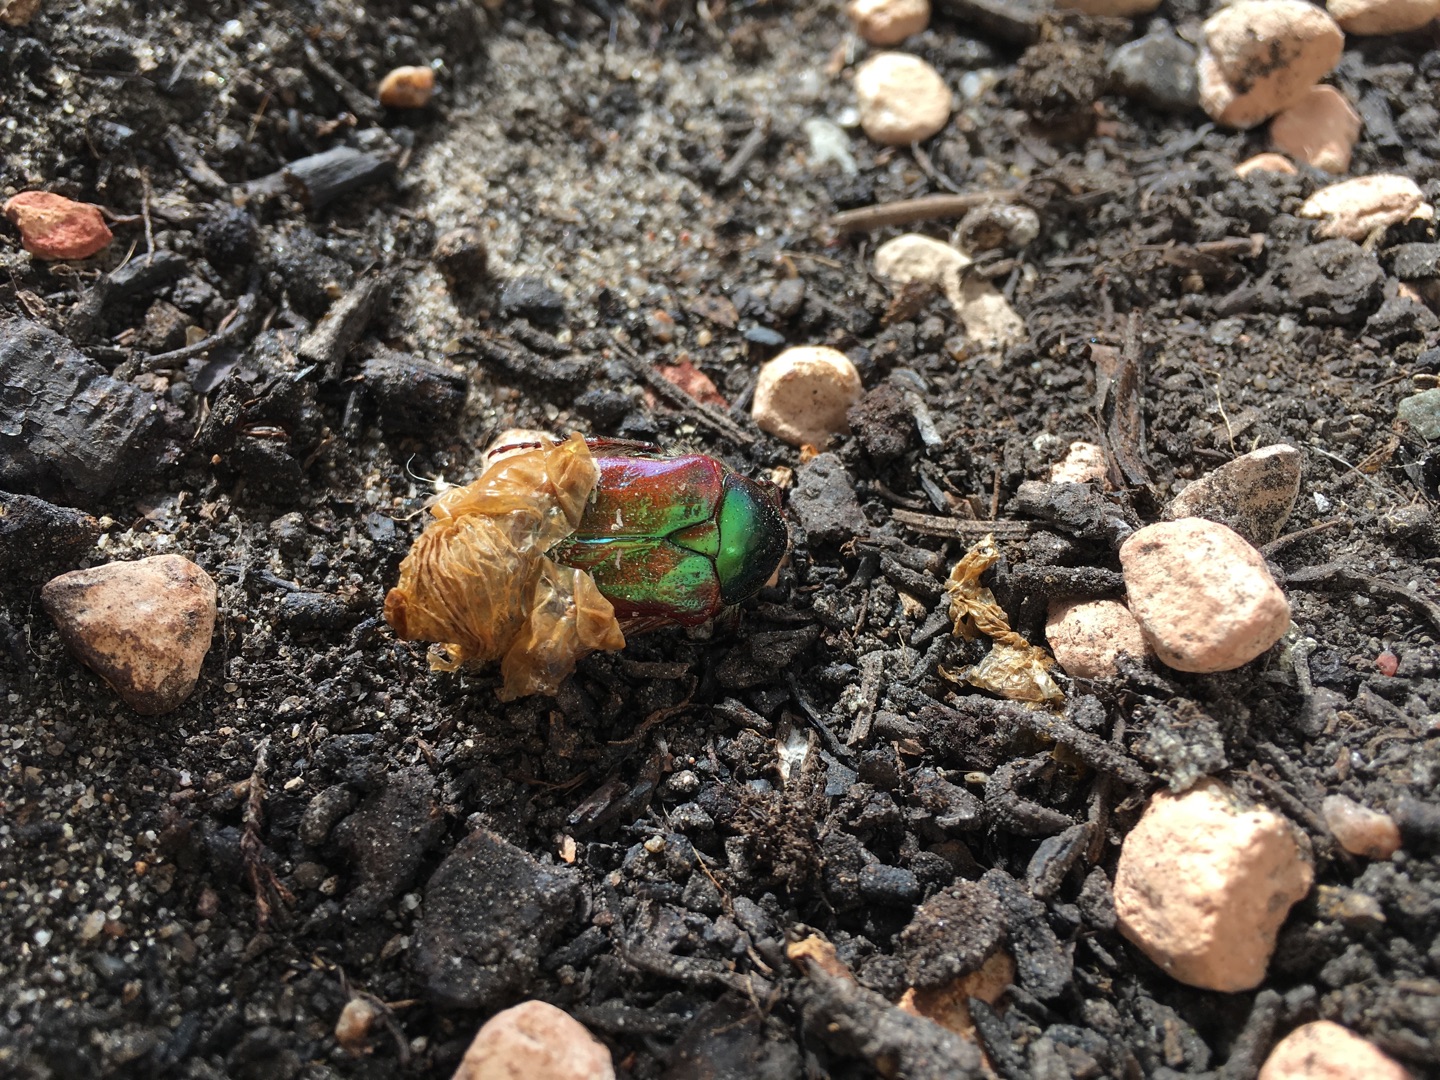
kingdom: Animalia
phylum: Arthropoda
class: Insecta
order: Coleoptera
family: Scarabaeidae
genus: Cetonia
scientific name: Cetonia aurata
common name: Grøn guldbasse
